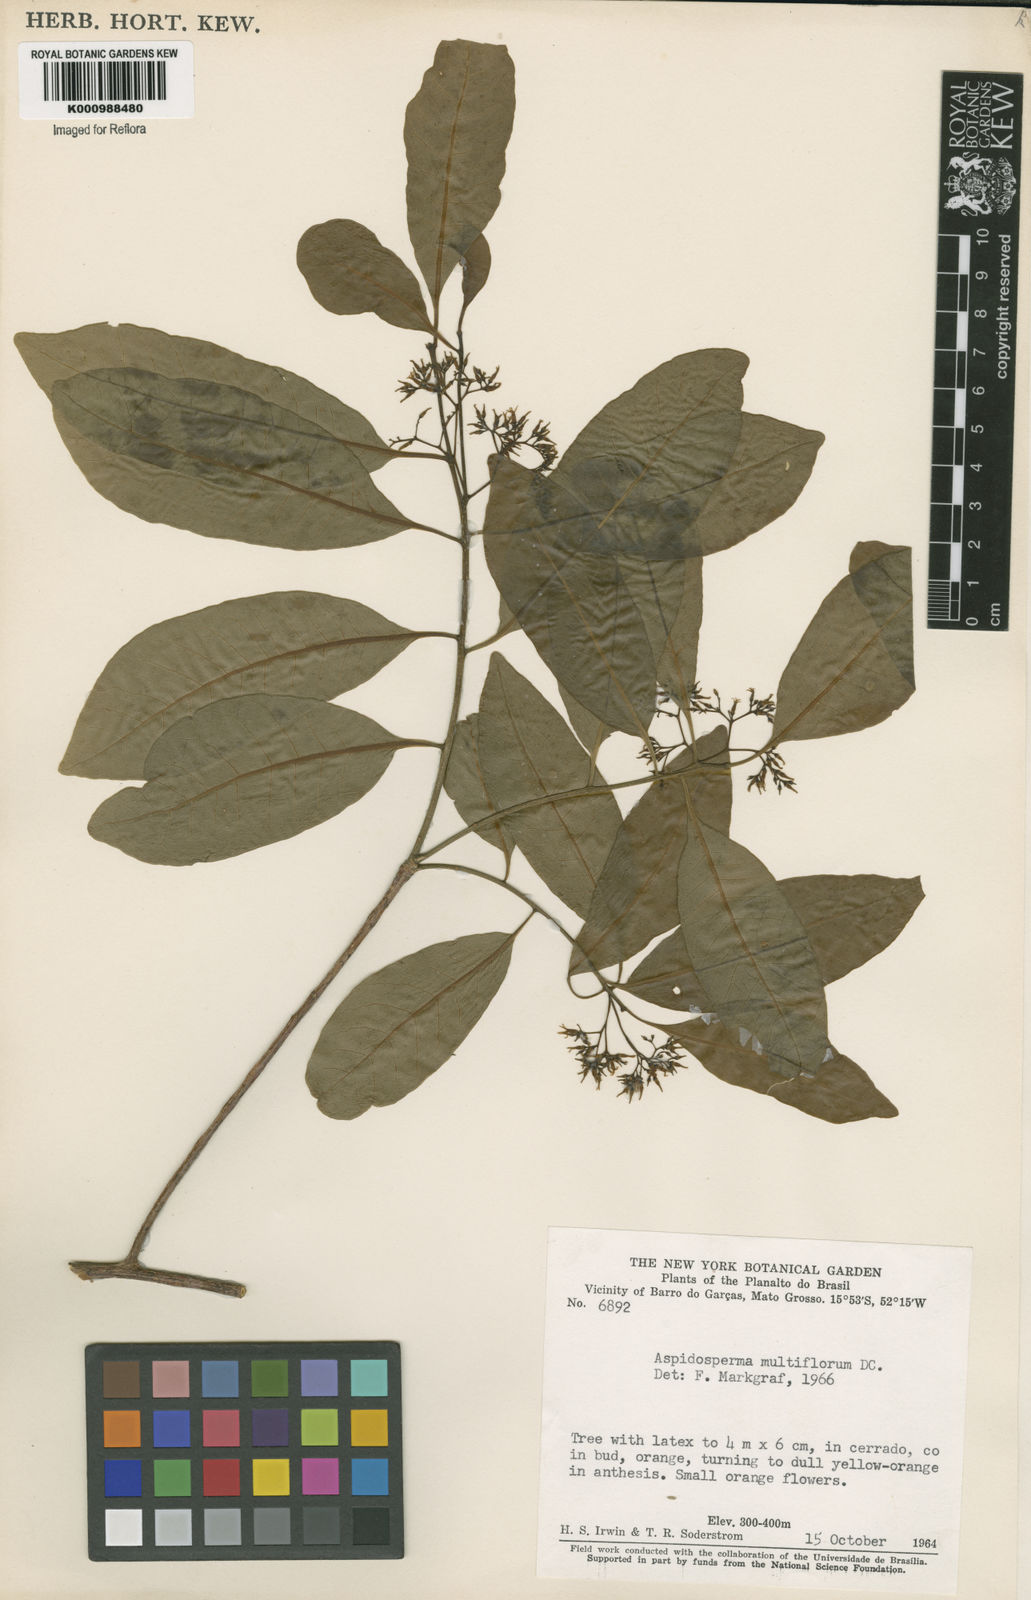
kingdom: Plantae
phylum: Tracheophyta
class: Magnoliopsida
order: Gentianales
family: Apocynaceae
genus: Aspidosperma
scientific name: Aspidosperma multiflorum
